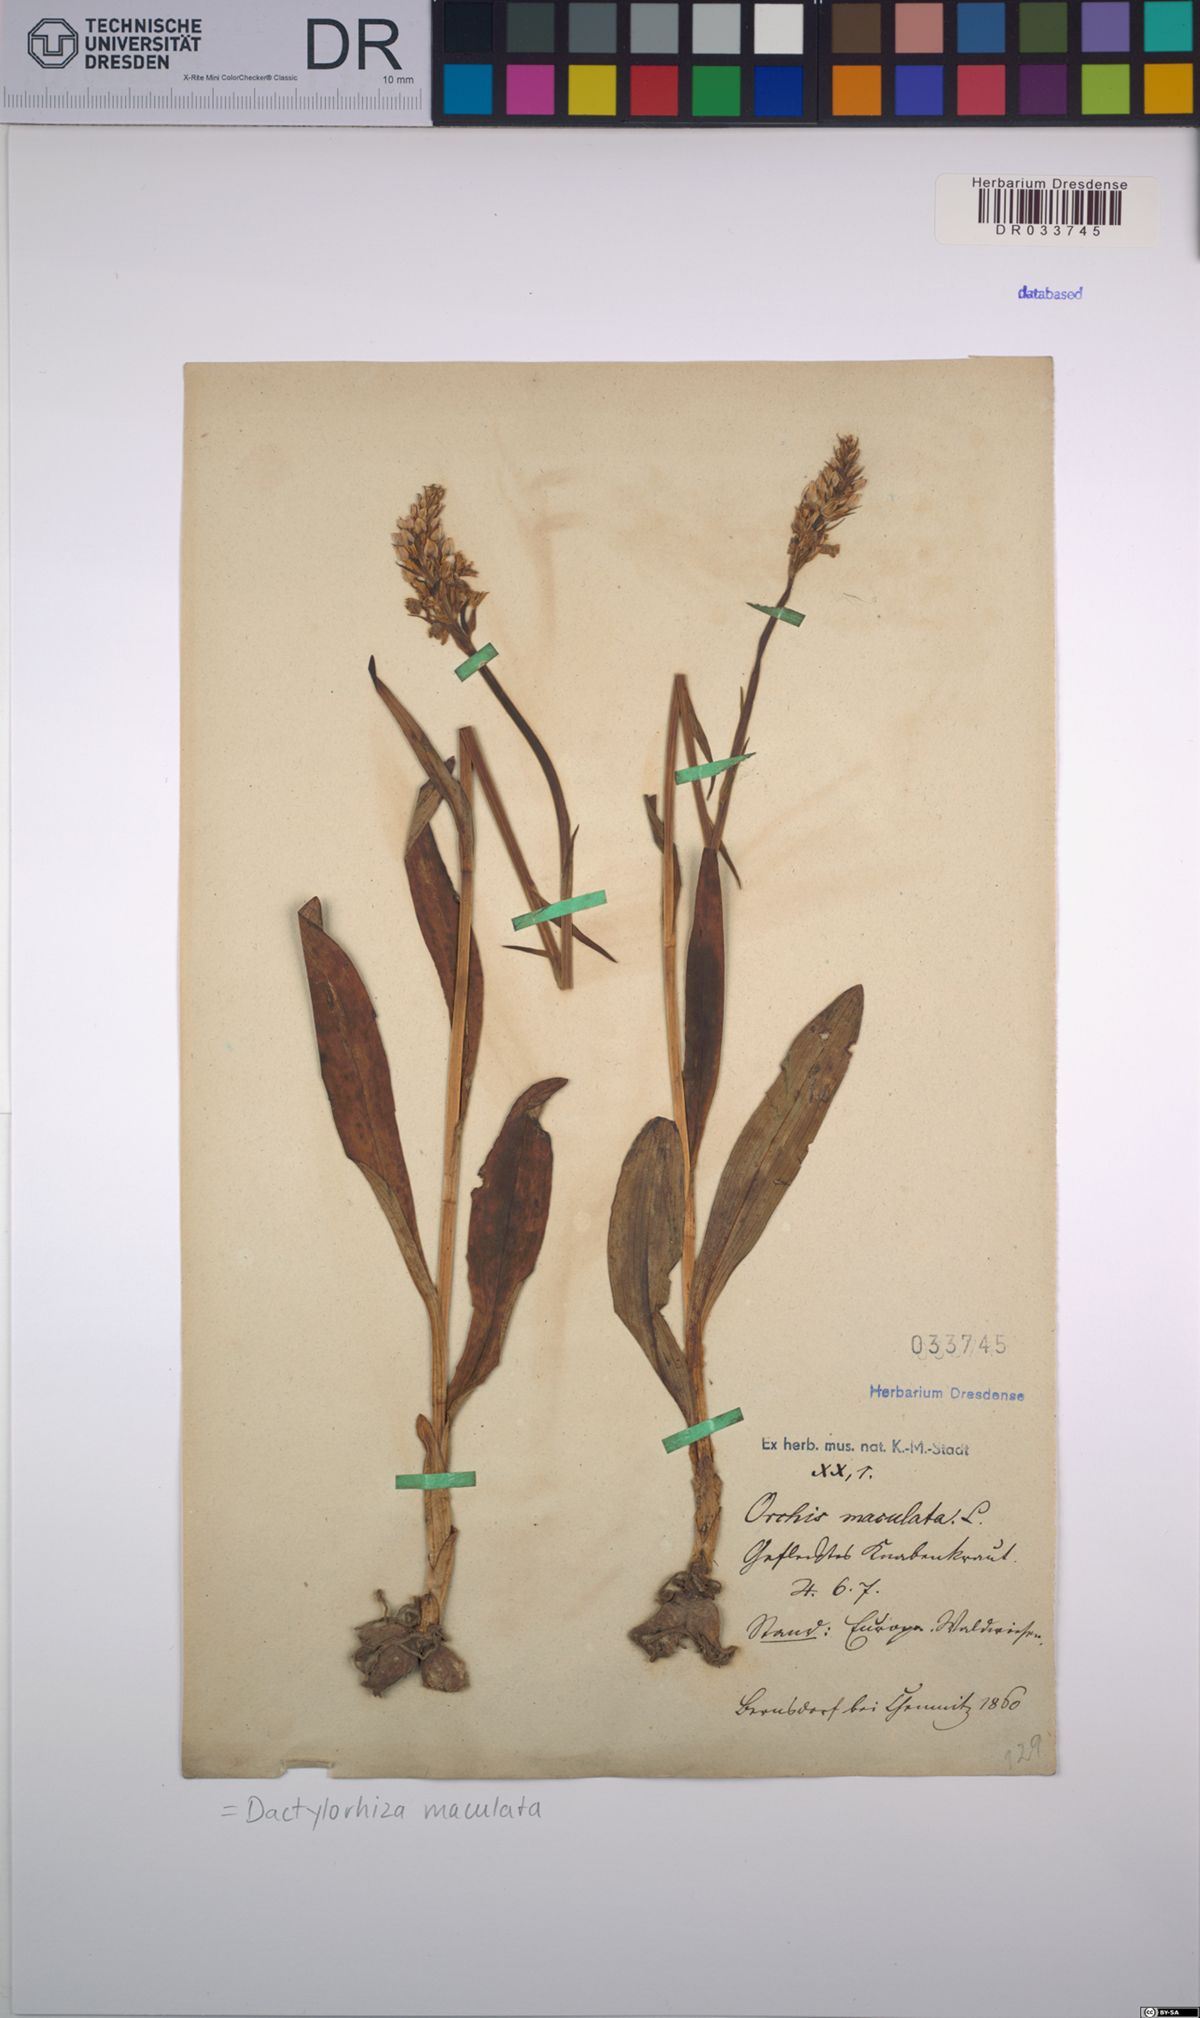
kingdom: Plantae
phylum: Tracheophyta
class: Liliopsida
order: Asparagales
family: Orchidaceae
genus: Dactylorhiza
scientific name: Dactylorhiza maculata
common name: Heath spotted-orchid
